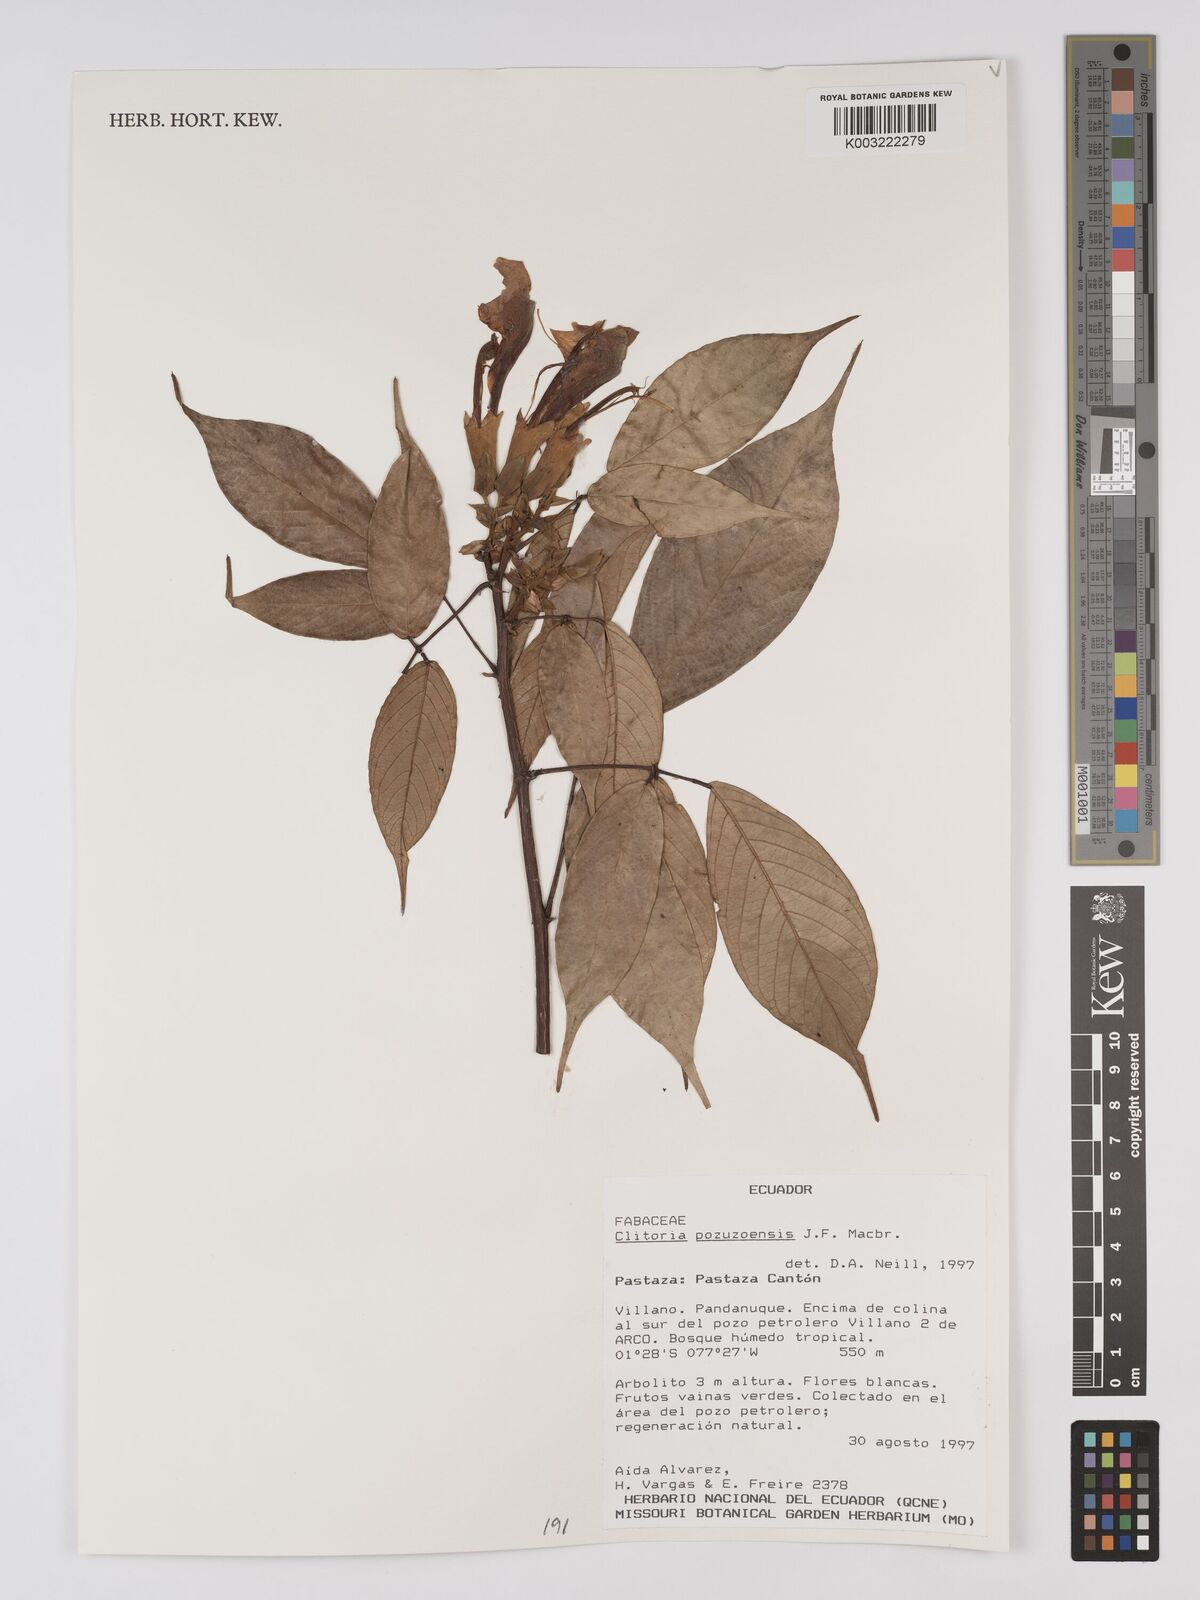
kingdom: Plantae
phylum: Tracheophyta
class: Magnoliopsida
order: Fabales
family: Fabaceae
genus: Clitoria
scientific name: Clitoria pozuzoensis
